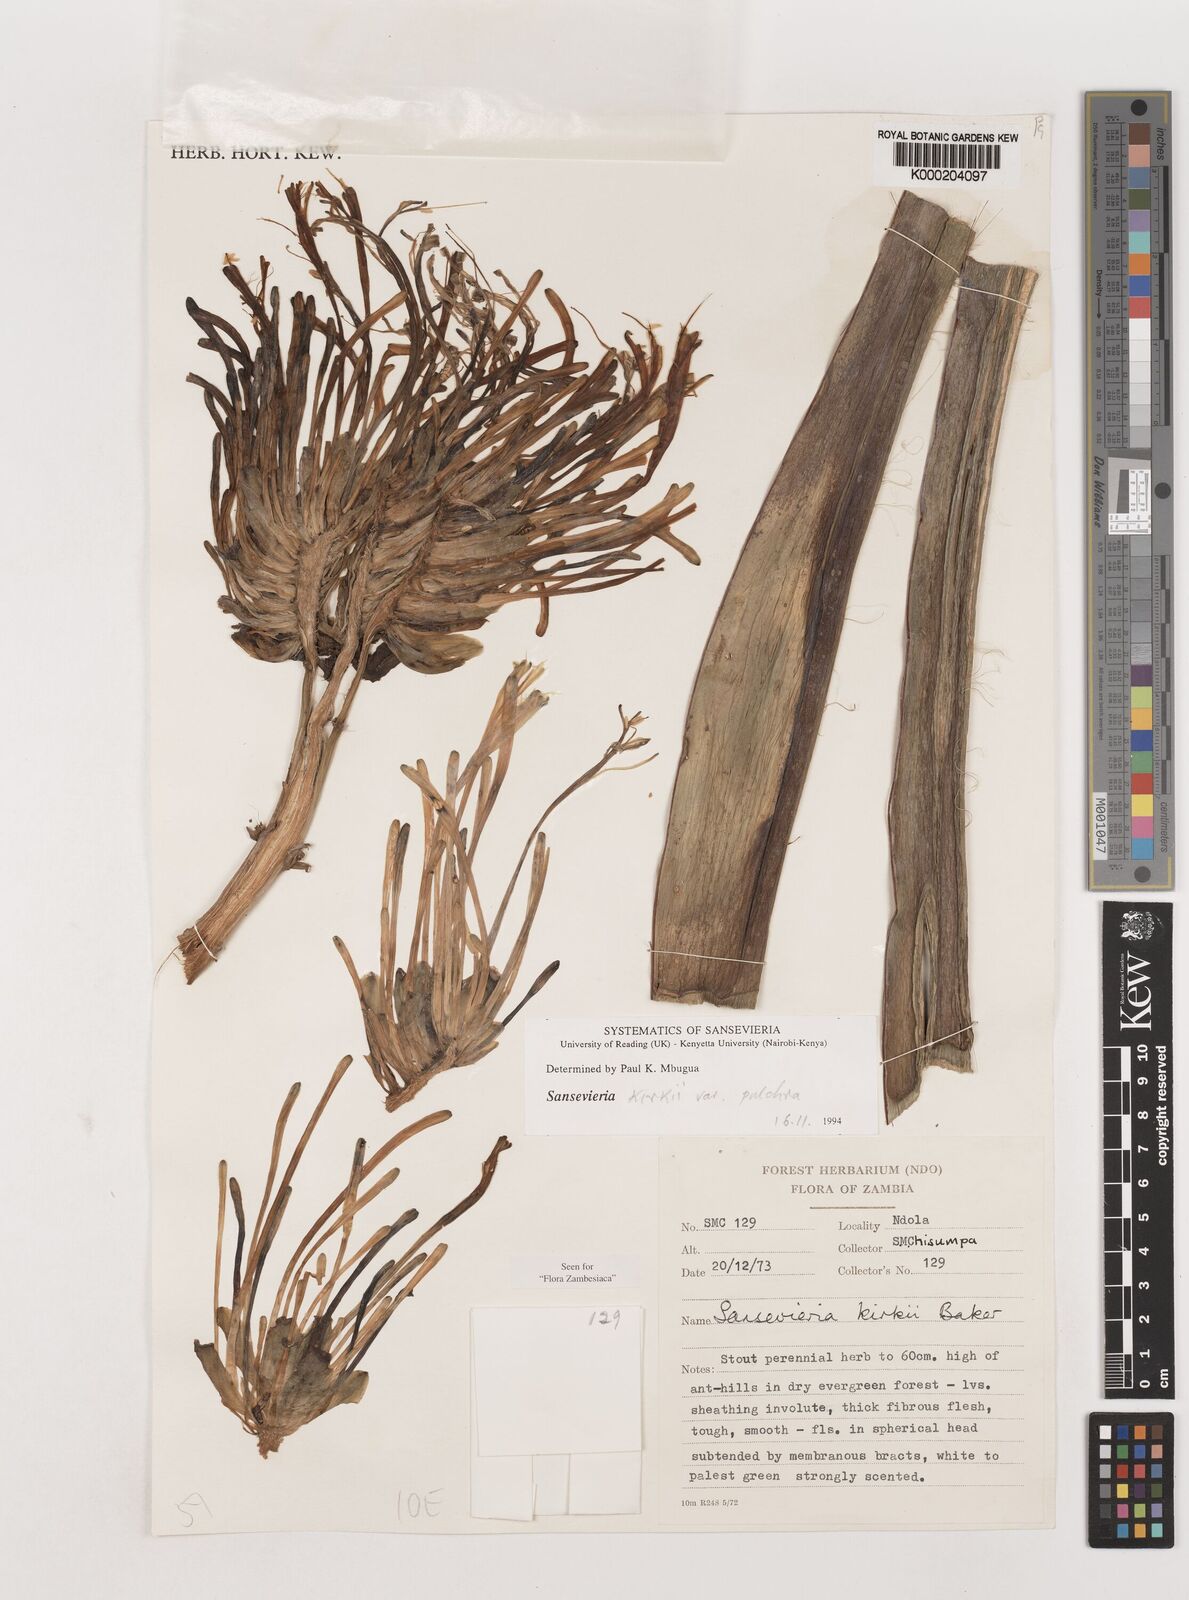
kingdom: Plantae
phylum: Tracheophyta
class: Liliopsida
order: Asparagales
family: Asparagaceae
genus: Dracaena
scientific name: Dracaena pethera
